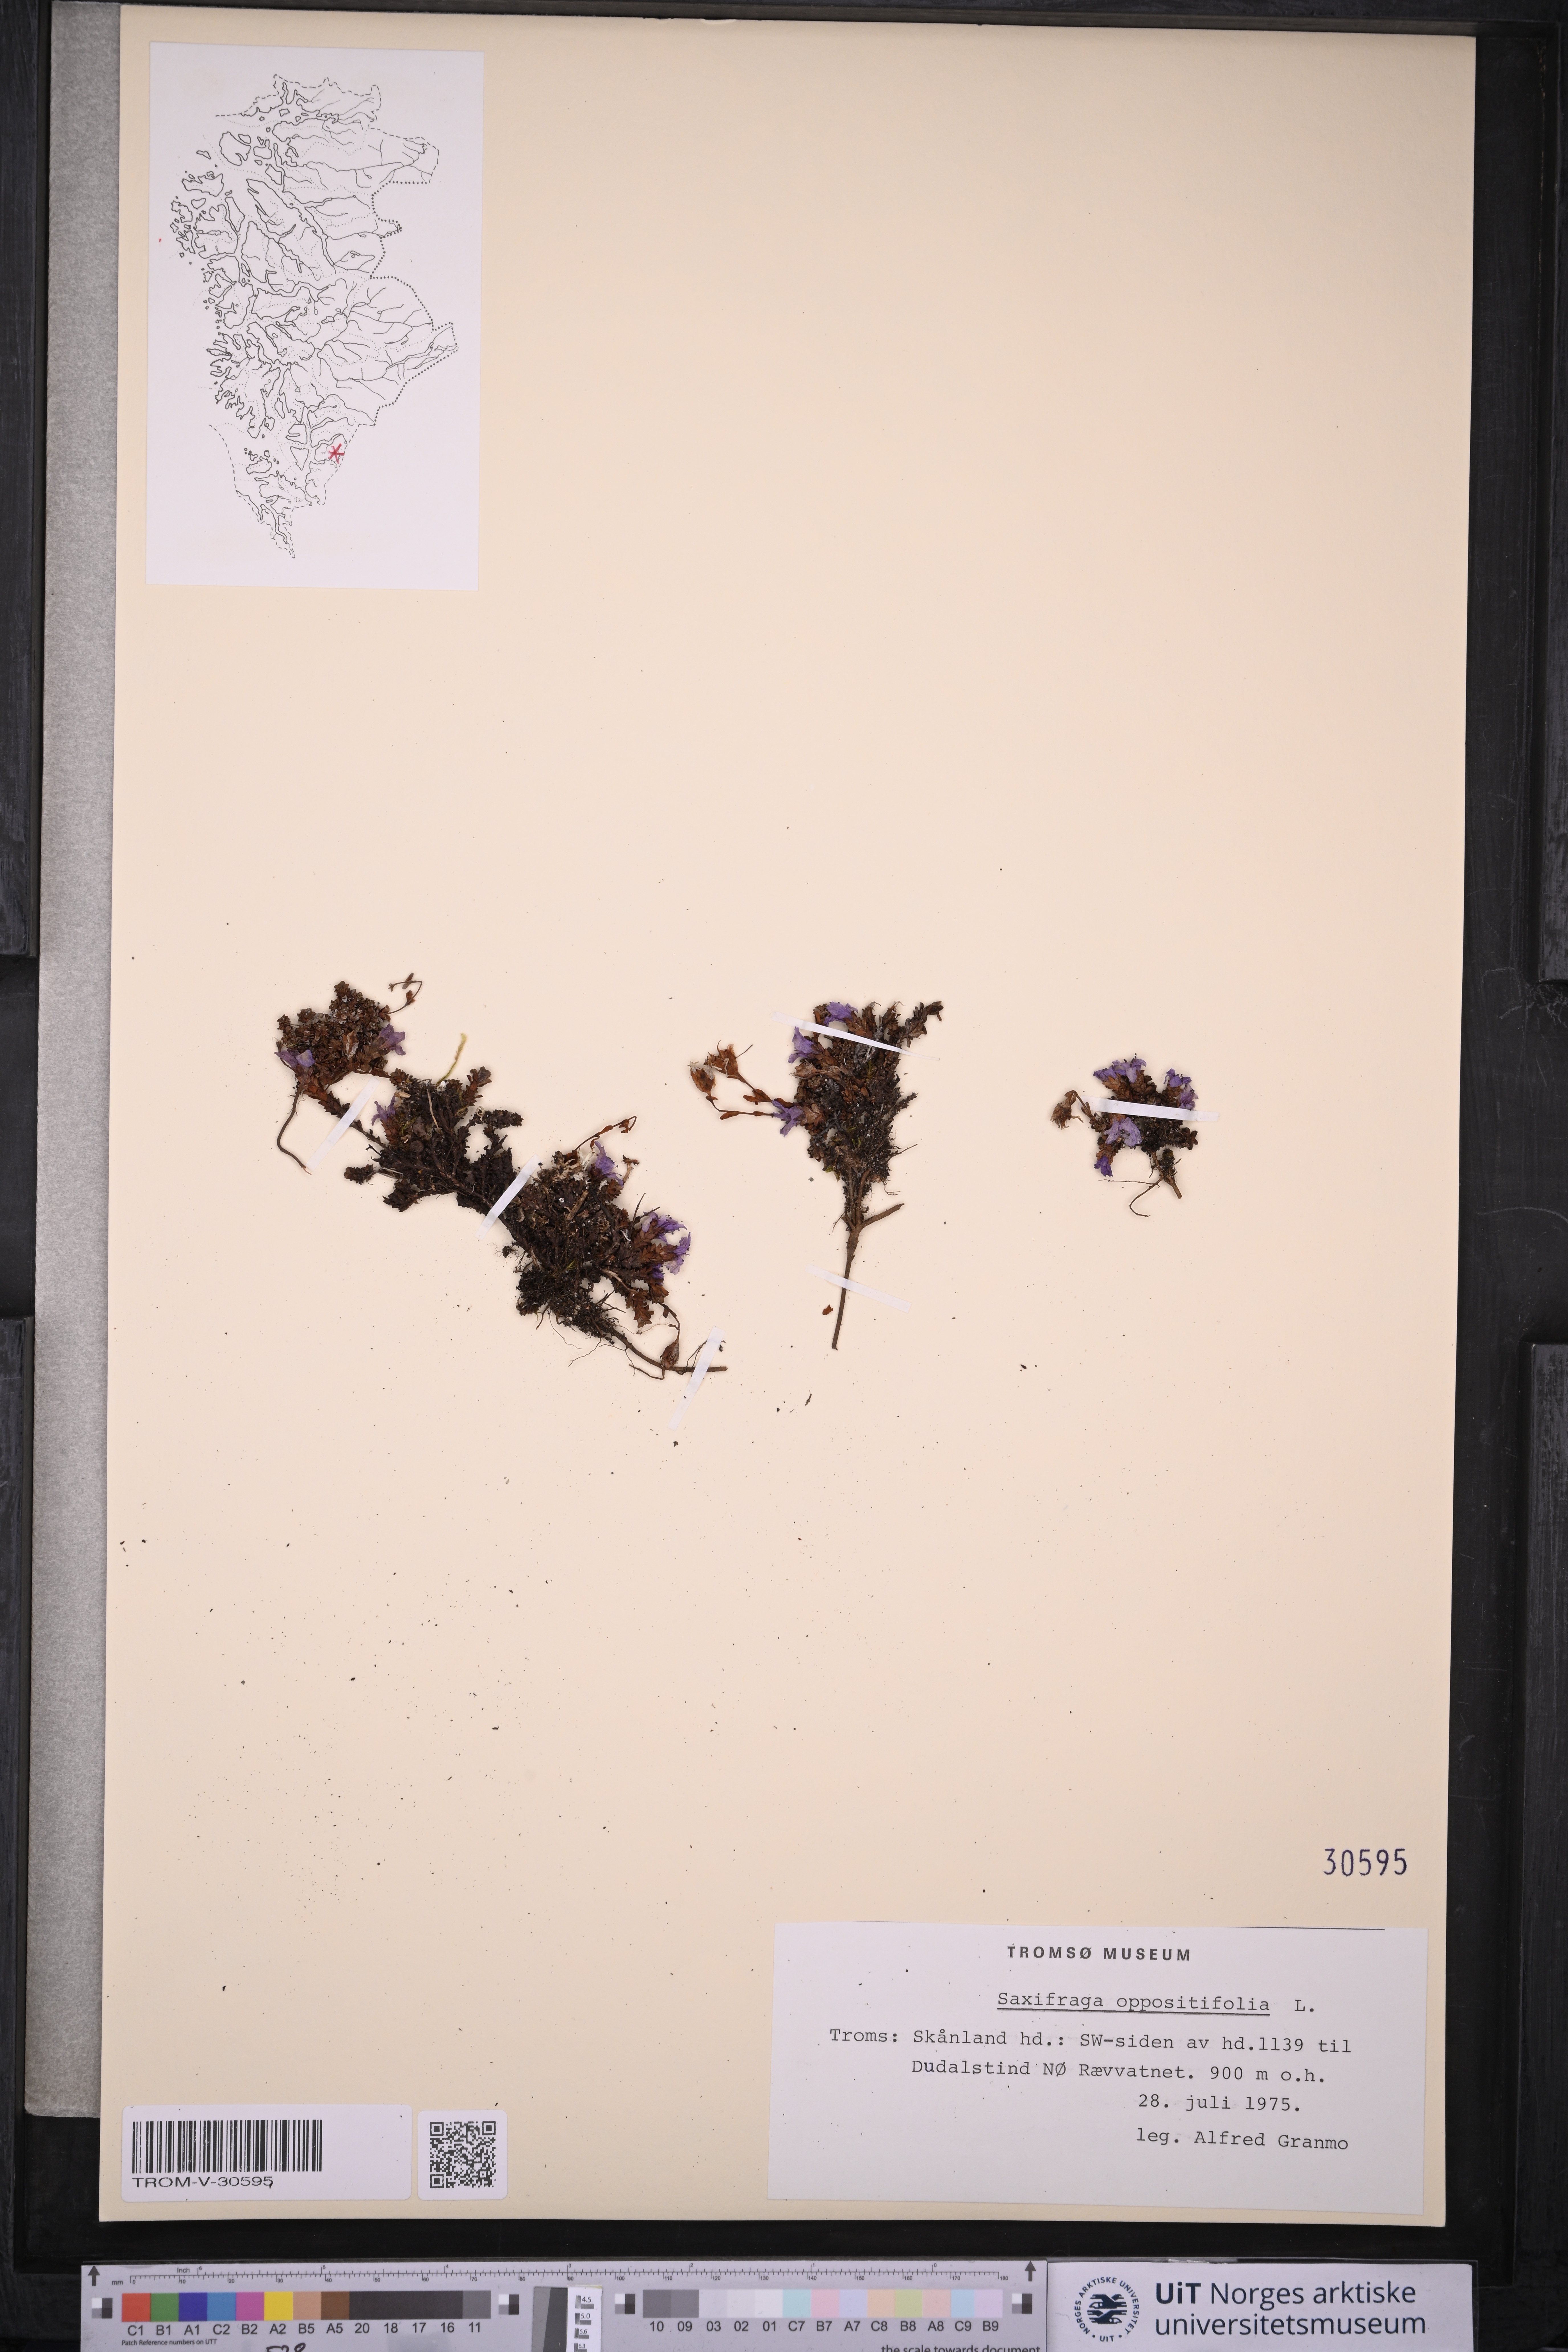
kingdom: Plantae
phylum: Tracheophyta
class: Magnoliopsida
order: Saxifragales
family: Saxifragaceae
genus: Saxifraga
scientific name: Saxifraga oppositifolia
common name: Purple saxifrage
